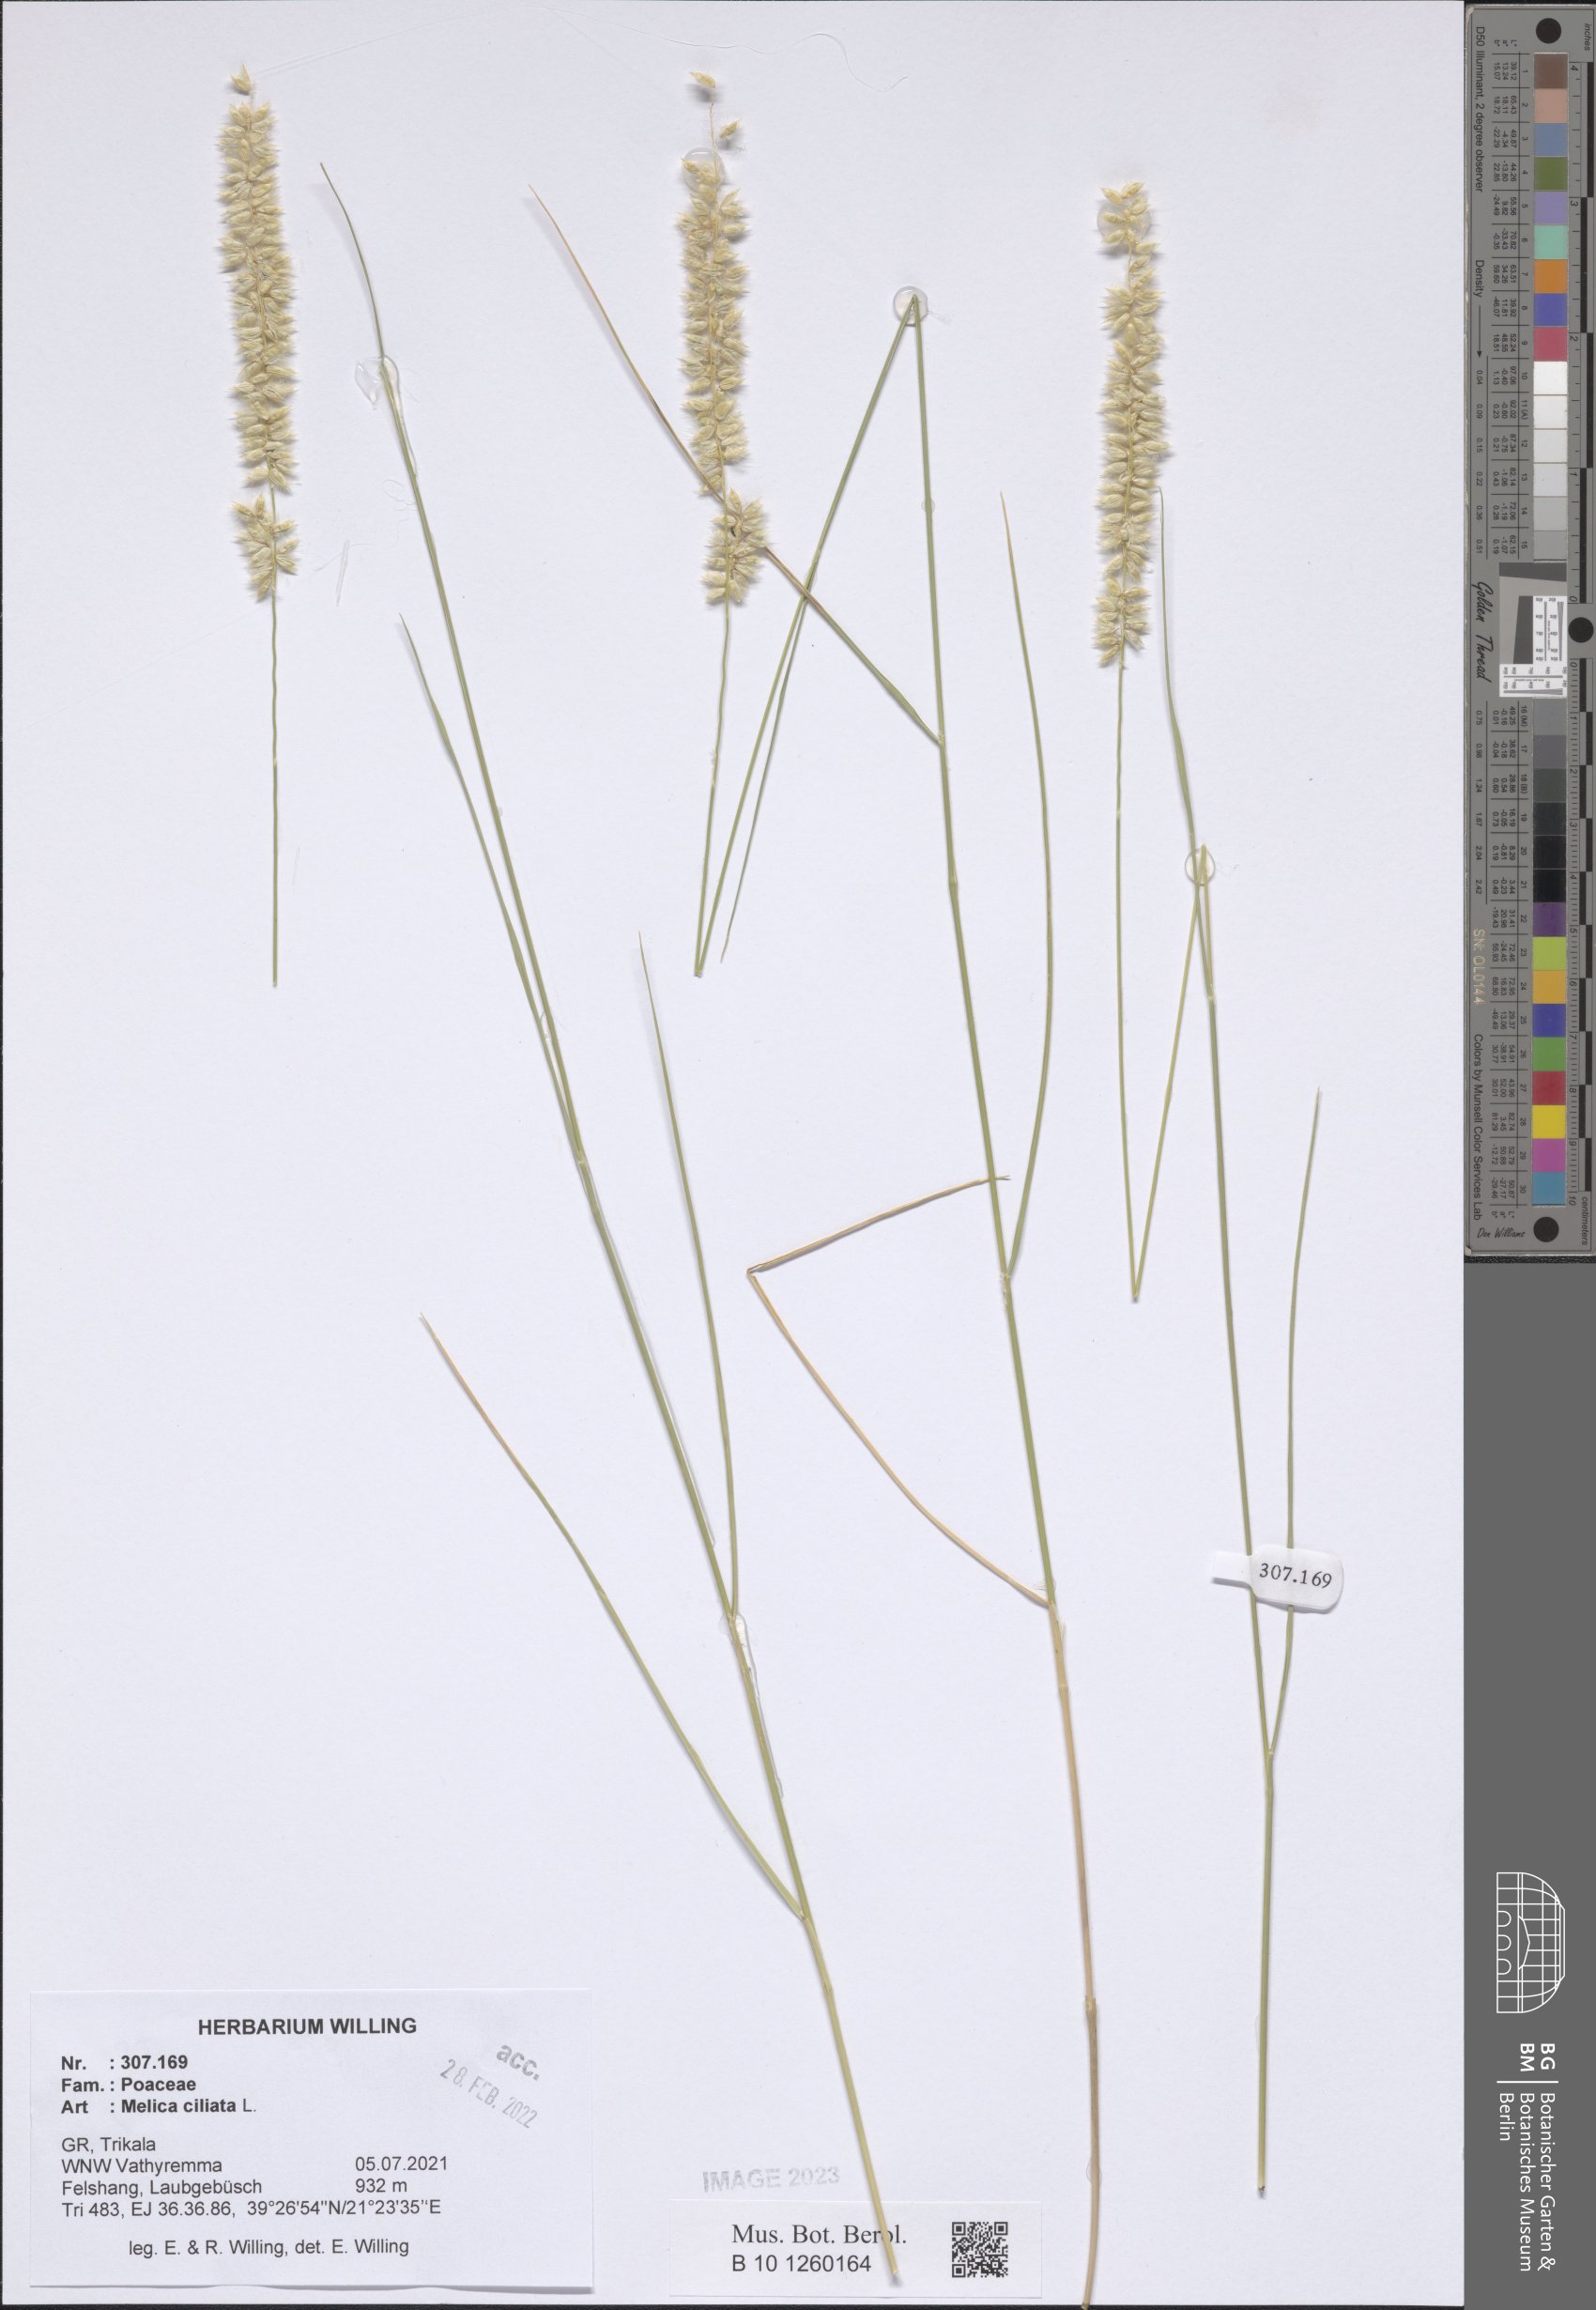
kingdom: Plantae
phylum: Tracheophyta
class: Liliopsida
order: Poales
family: Poaceae
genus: Melica
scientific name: Melica ciliata
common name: Hairy melicgrass
